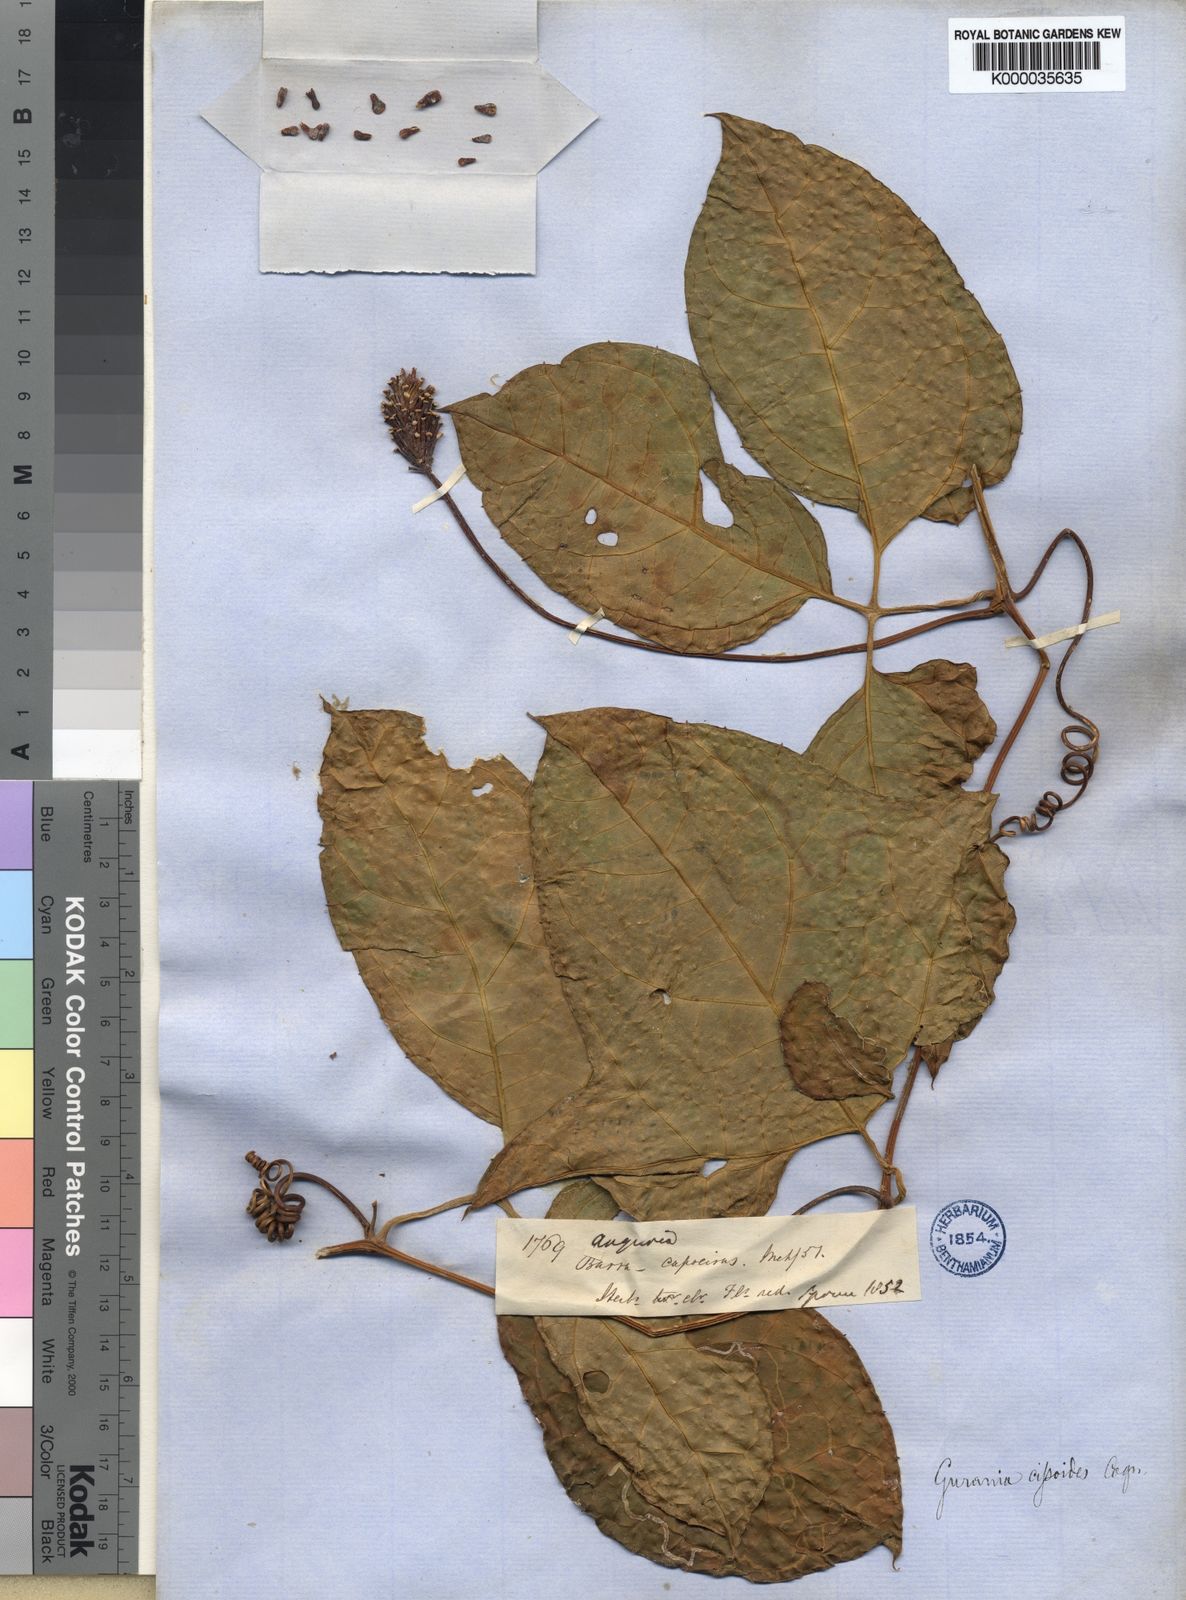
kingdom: Plantae
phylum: Tracheophyta
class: Magnoliopsida
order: Cucurbitales
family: Cucurbitaceae
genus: Gurania
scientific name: Gurania bignoniacea
